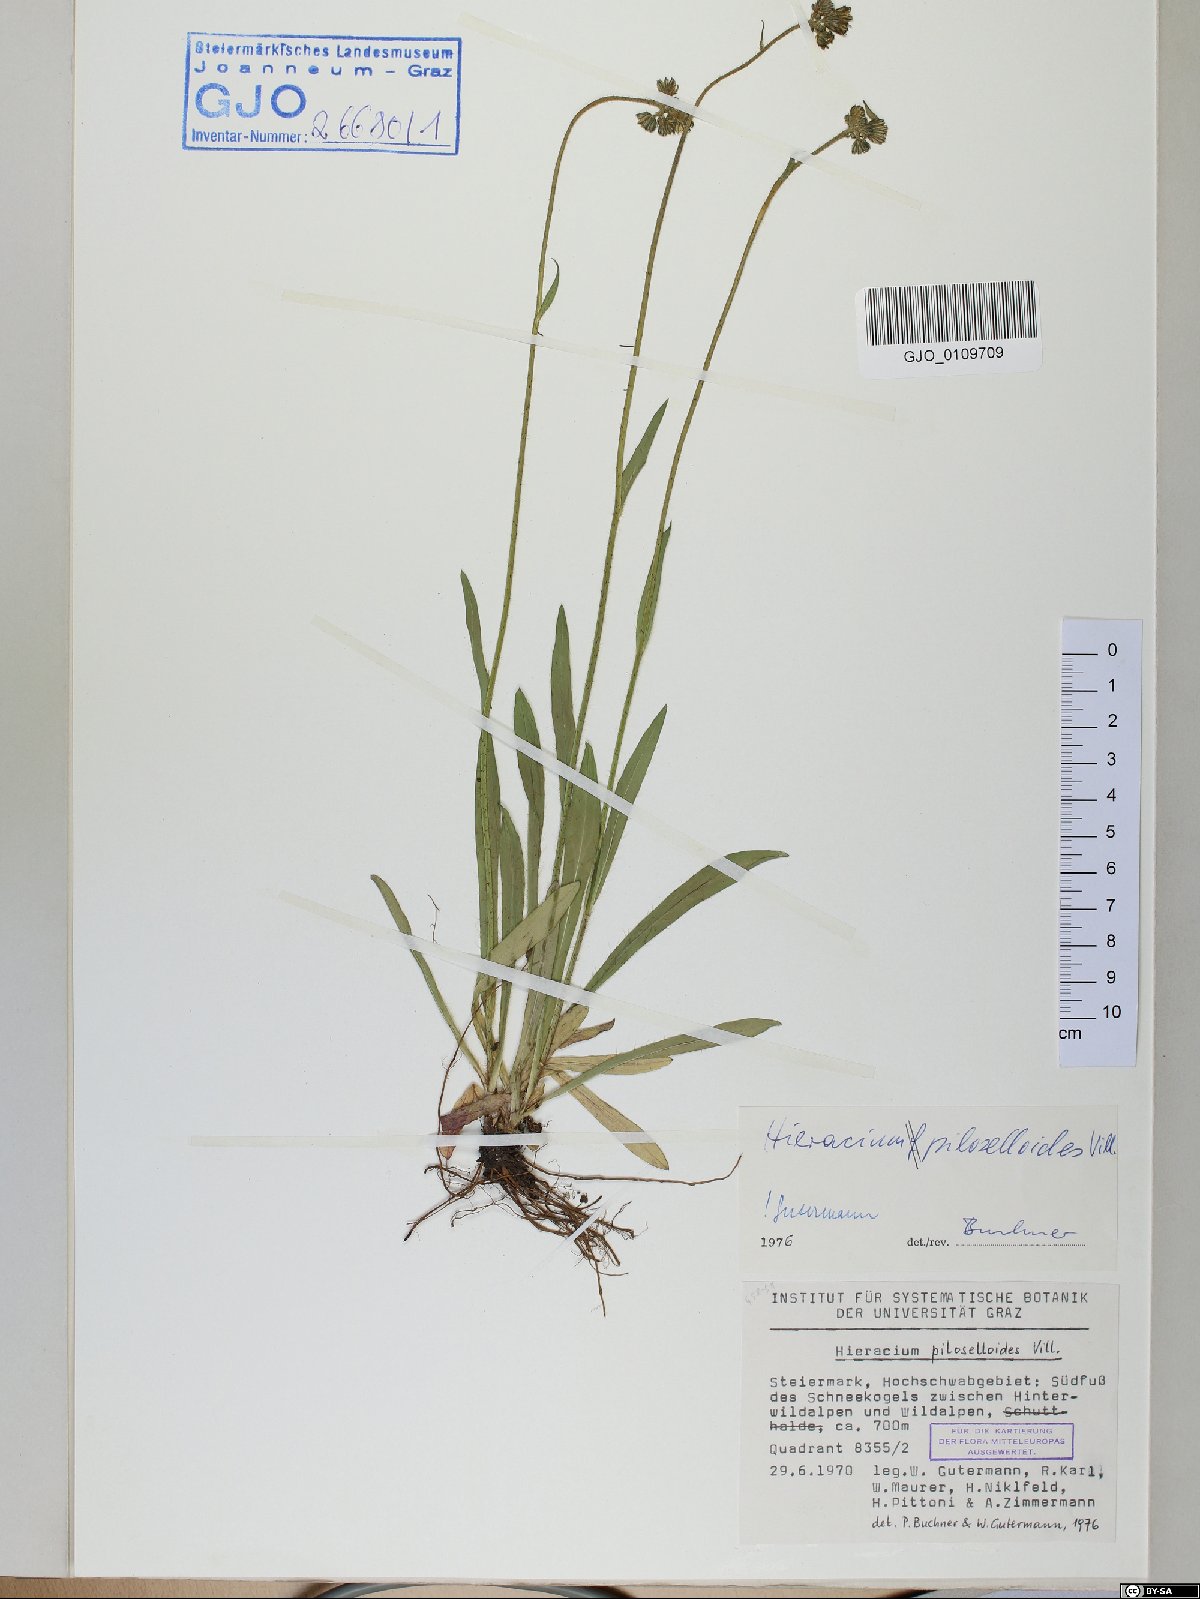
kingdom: Plantae
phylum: Tracheophyta
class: Magnoliopsida
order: Asterales
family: Asteraceae
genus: Pilosella
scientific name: Pilosella piloselloides
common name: Glaucous king-devil
